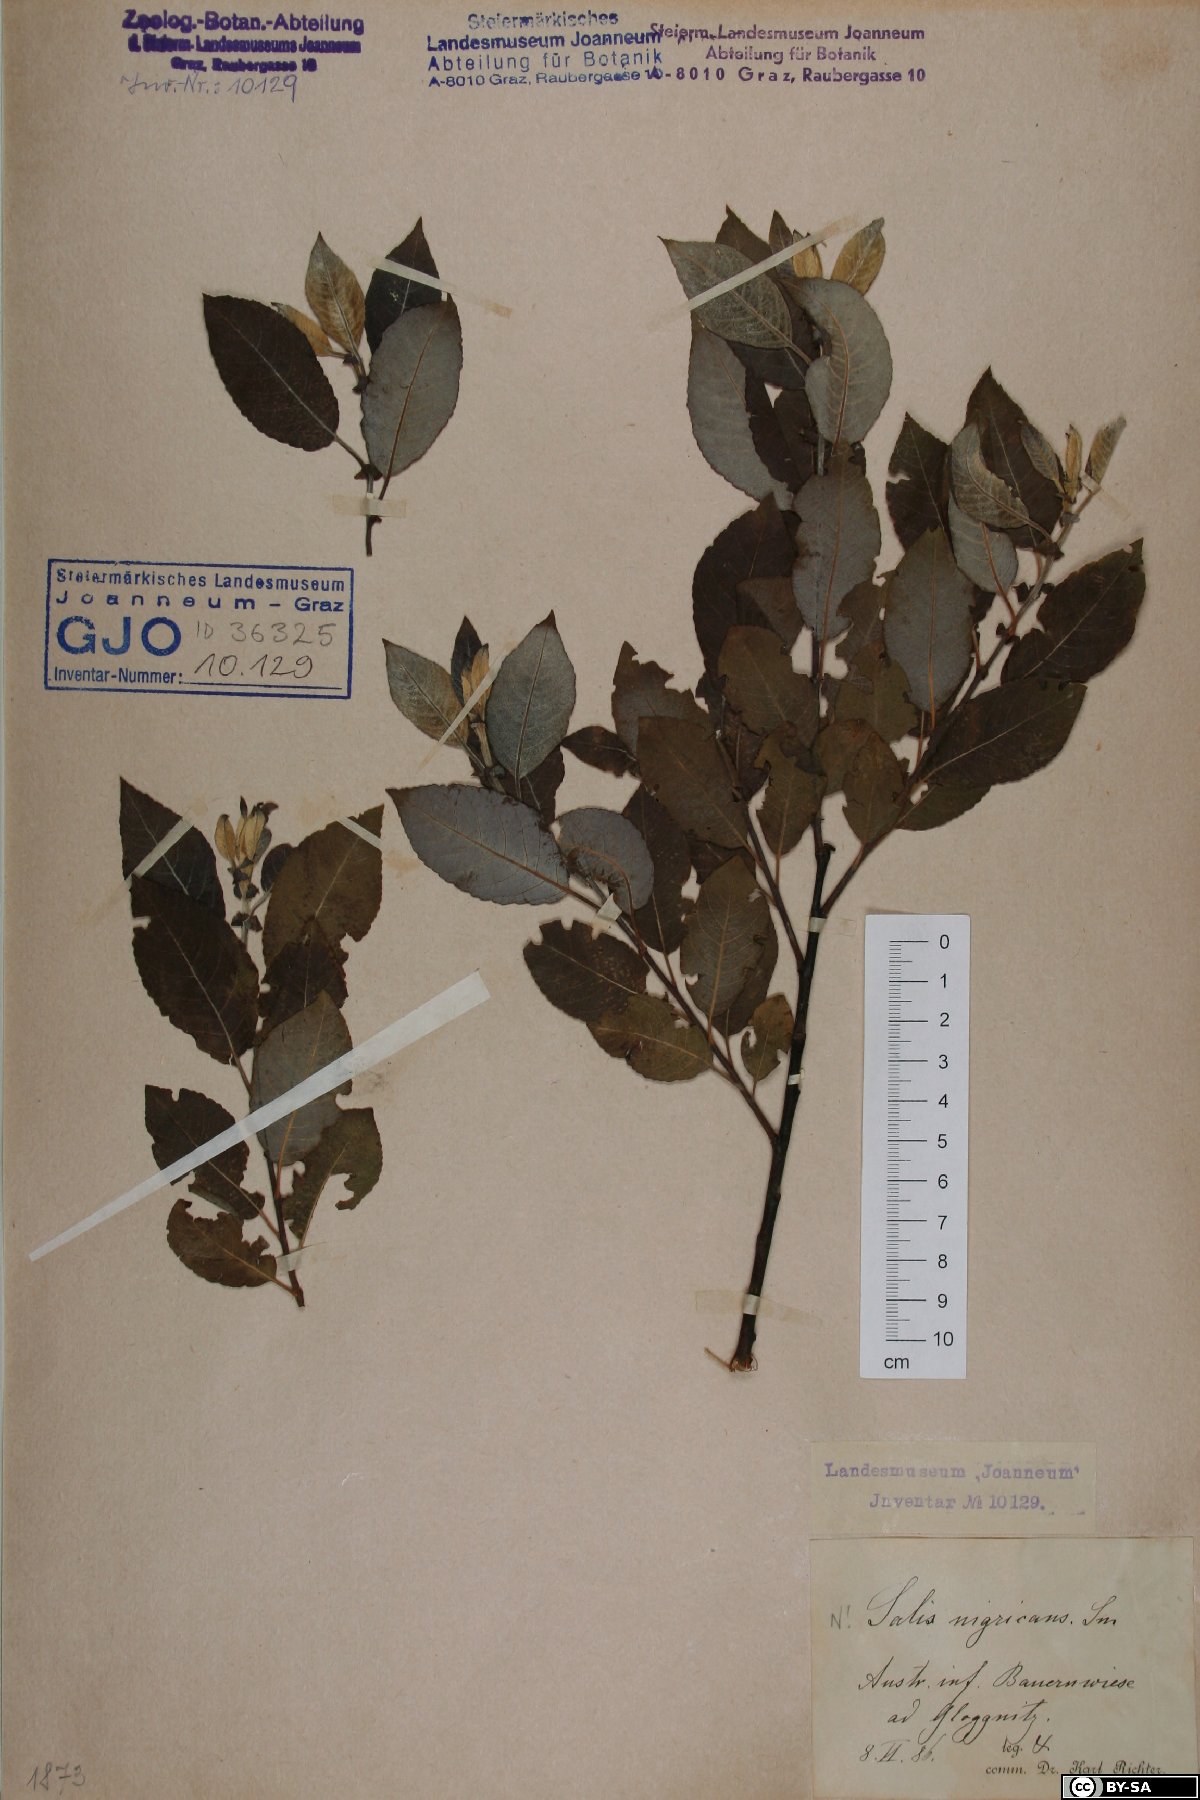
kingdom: Plantae
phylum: Tracheophyta
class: Magnoliopsida
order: Malpighiales
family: Salicaceae
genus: Salix
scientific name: Salix myrsinifolia
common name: Dark-leaved willow
